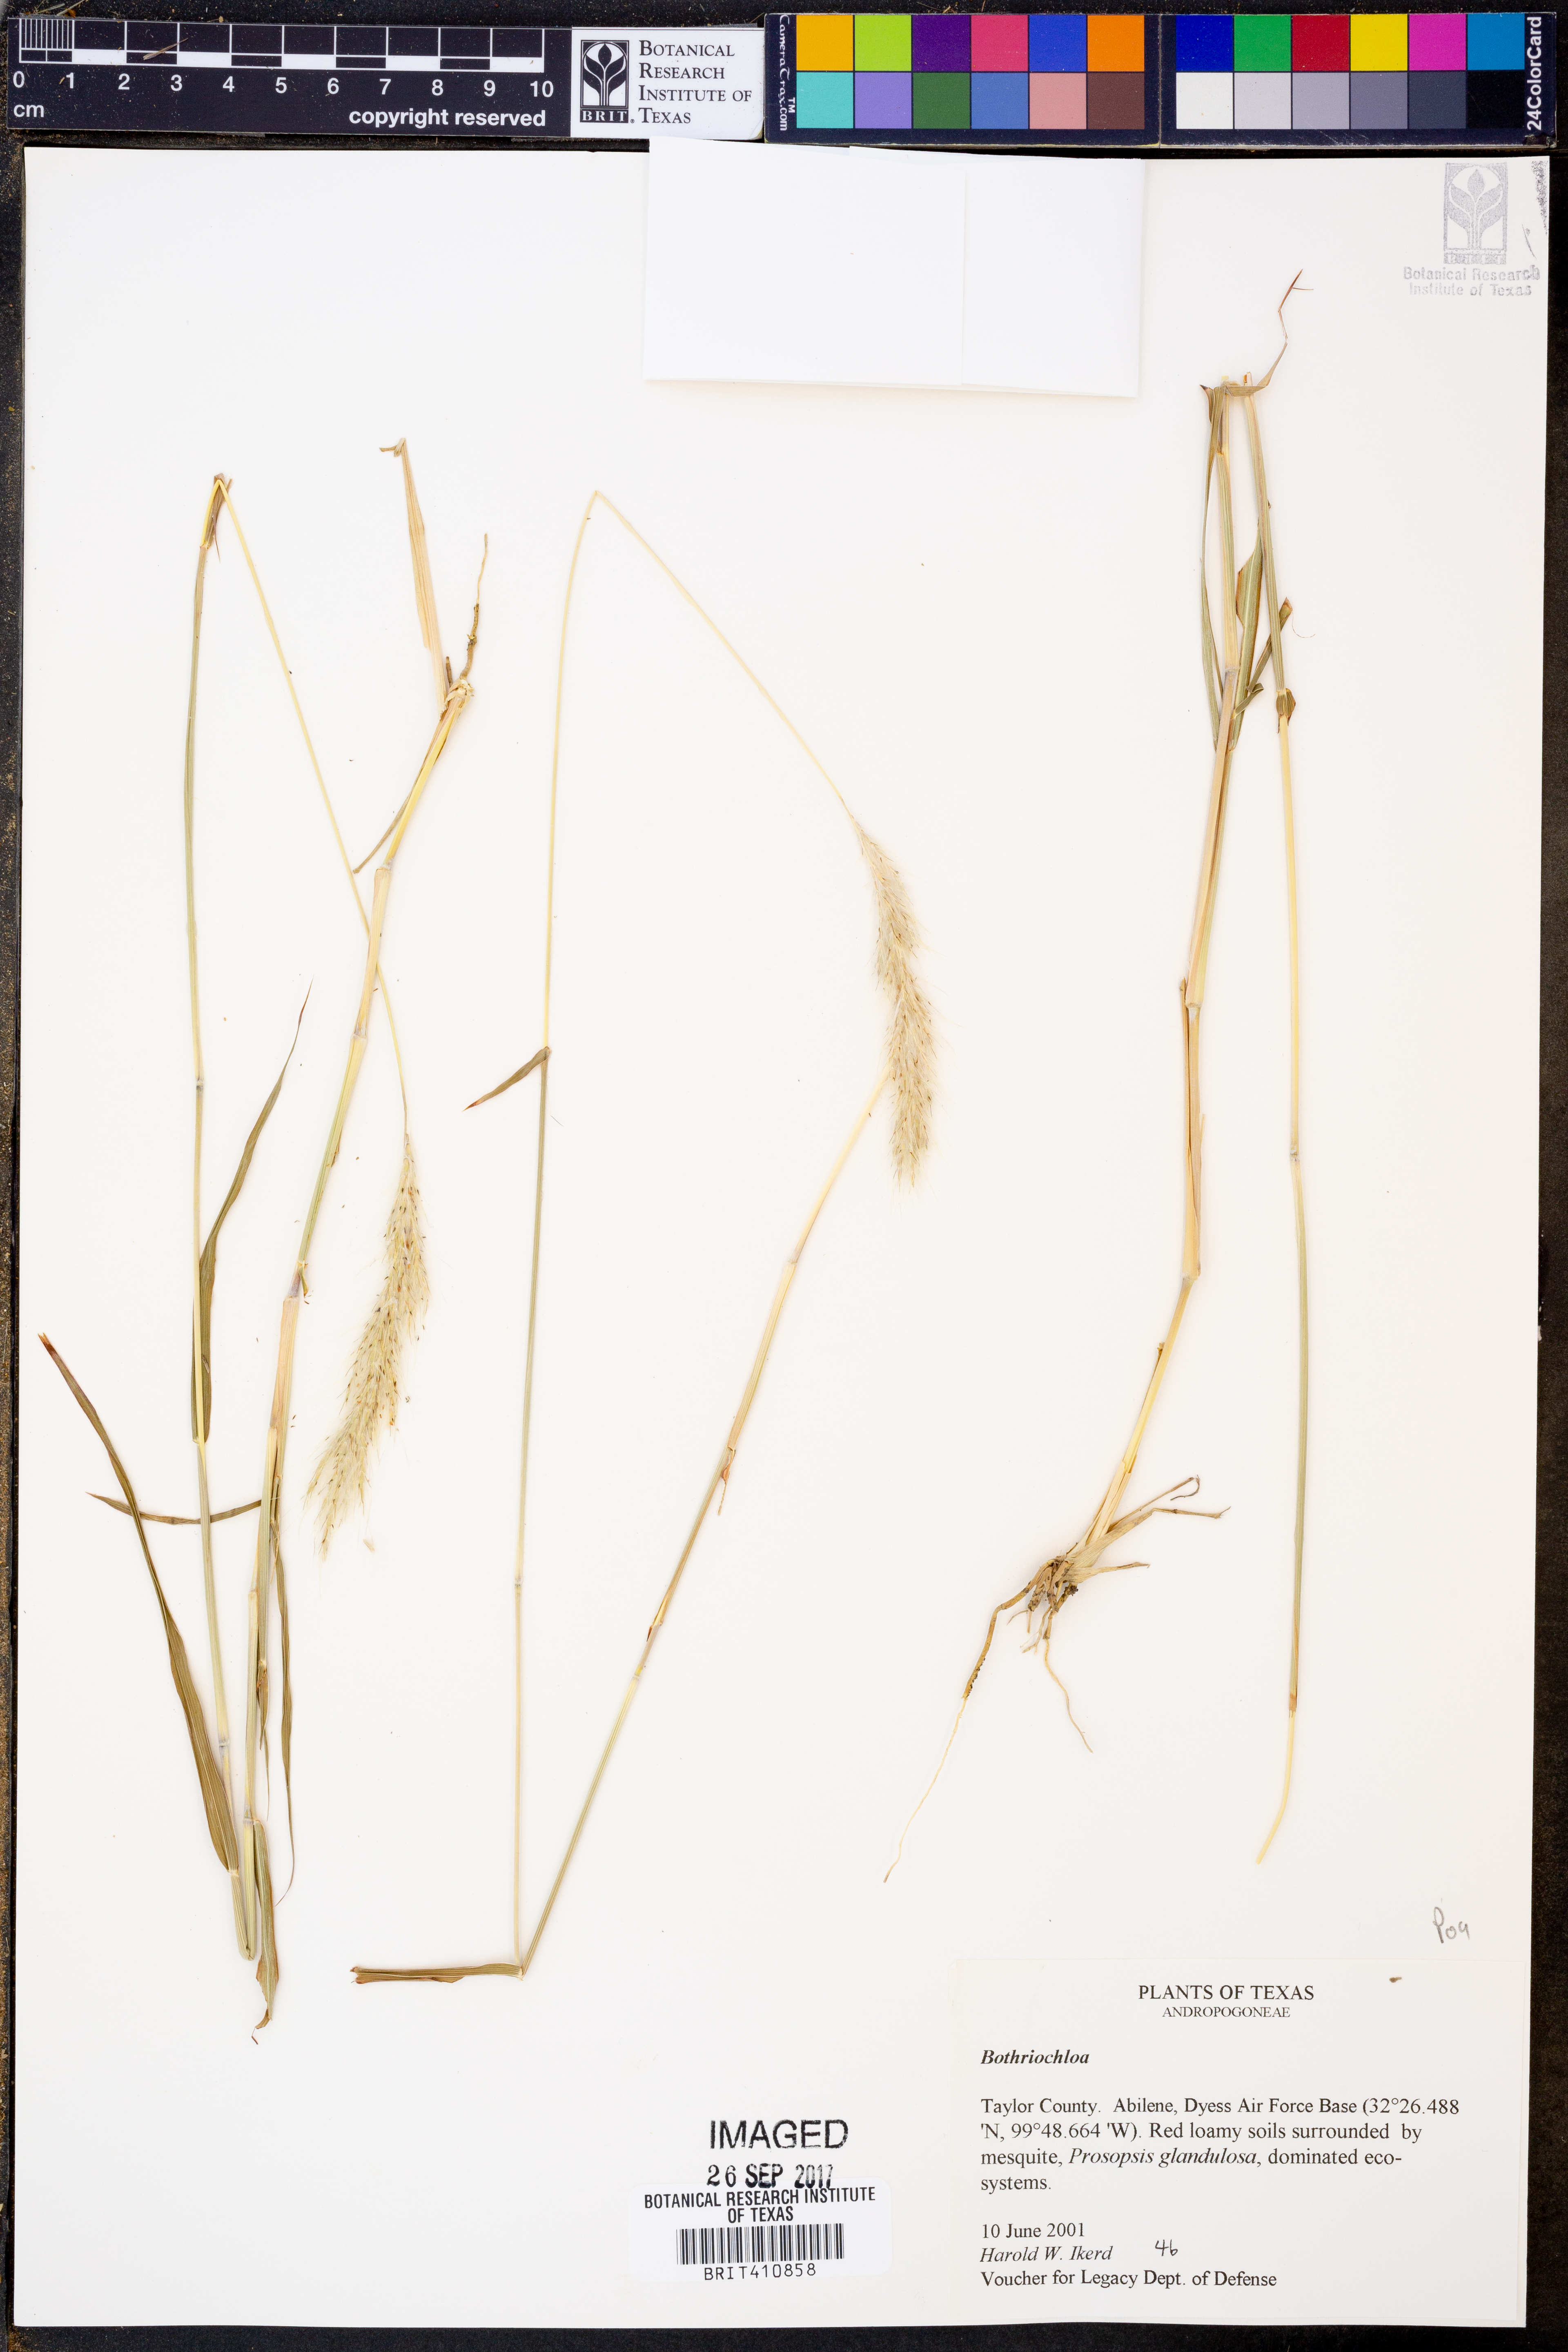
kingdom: Plantae
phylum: Tracheophyta
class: Liliopsida
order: Poales
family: Poaceae
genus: Bothriochloa
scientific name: Bothriochloa
